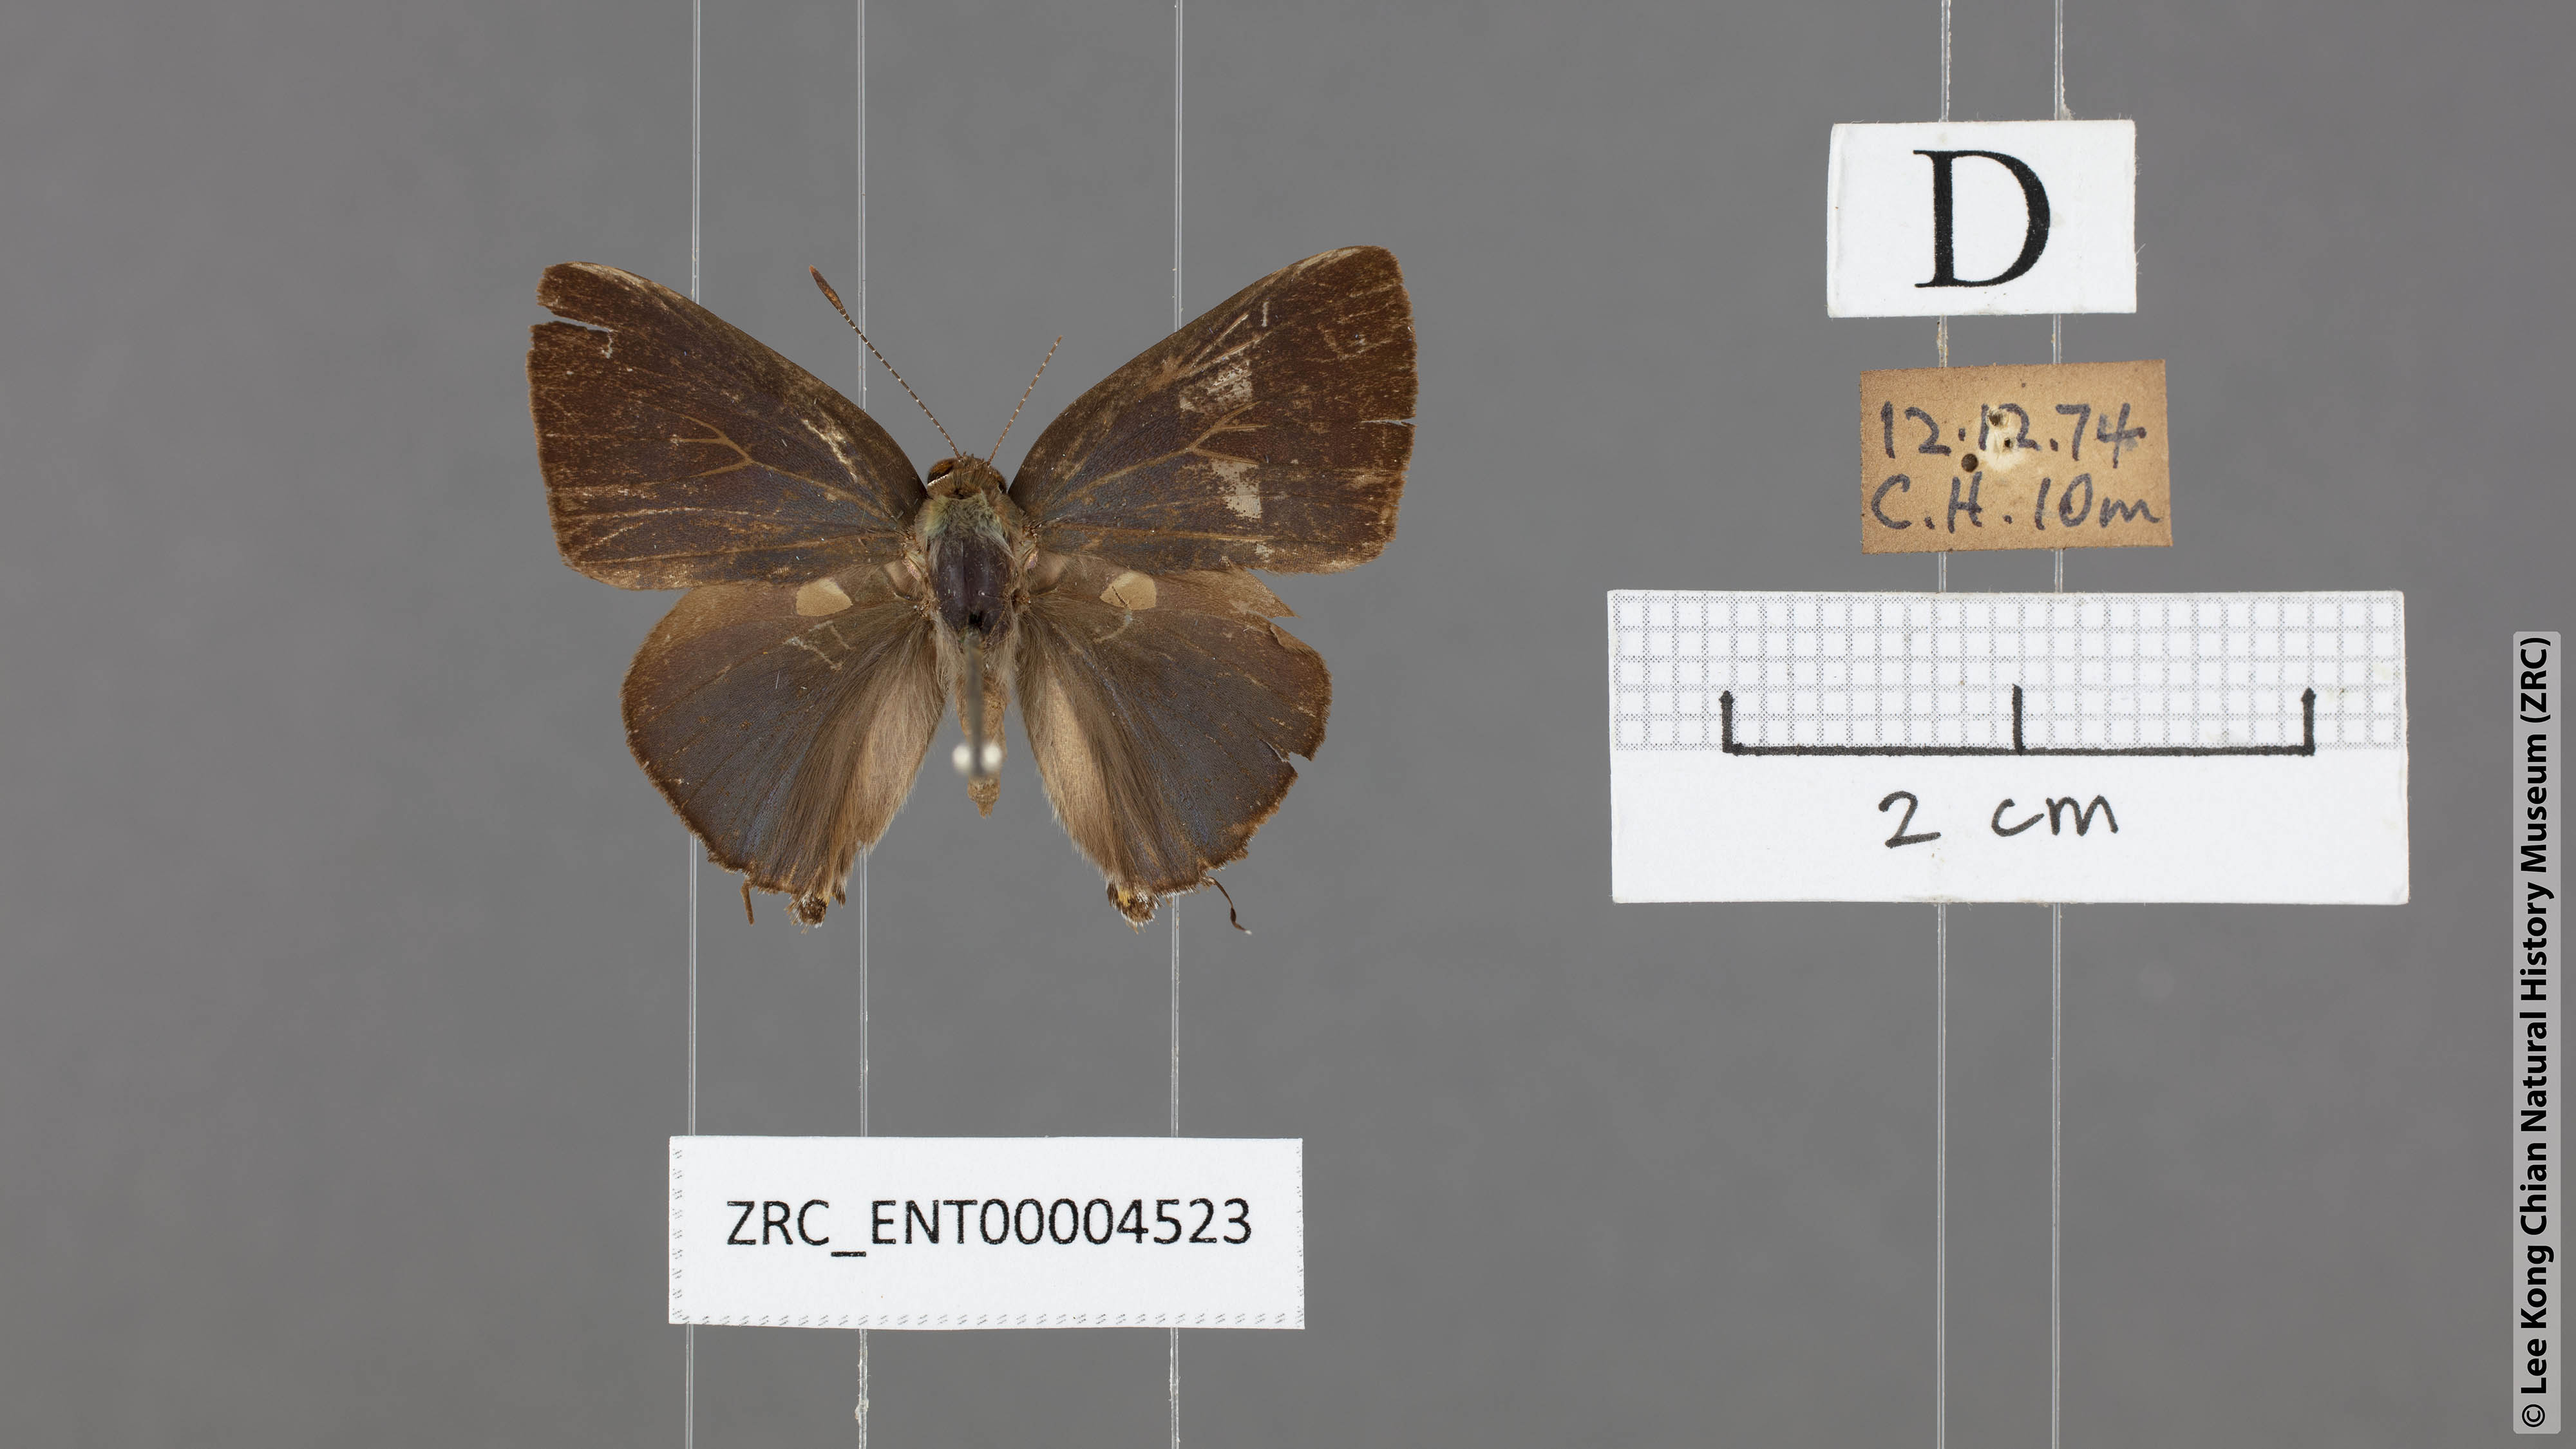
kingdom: Animalia
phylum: Arthropoda
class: Insecta
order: Lepidoptera
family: Lycaenidae
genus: Rapala
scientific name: Rapala varuna
